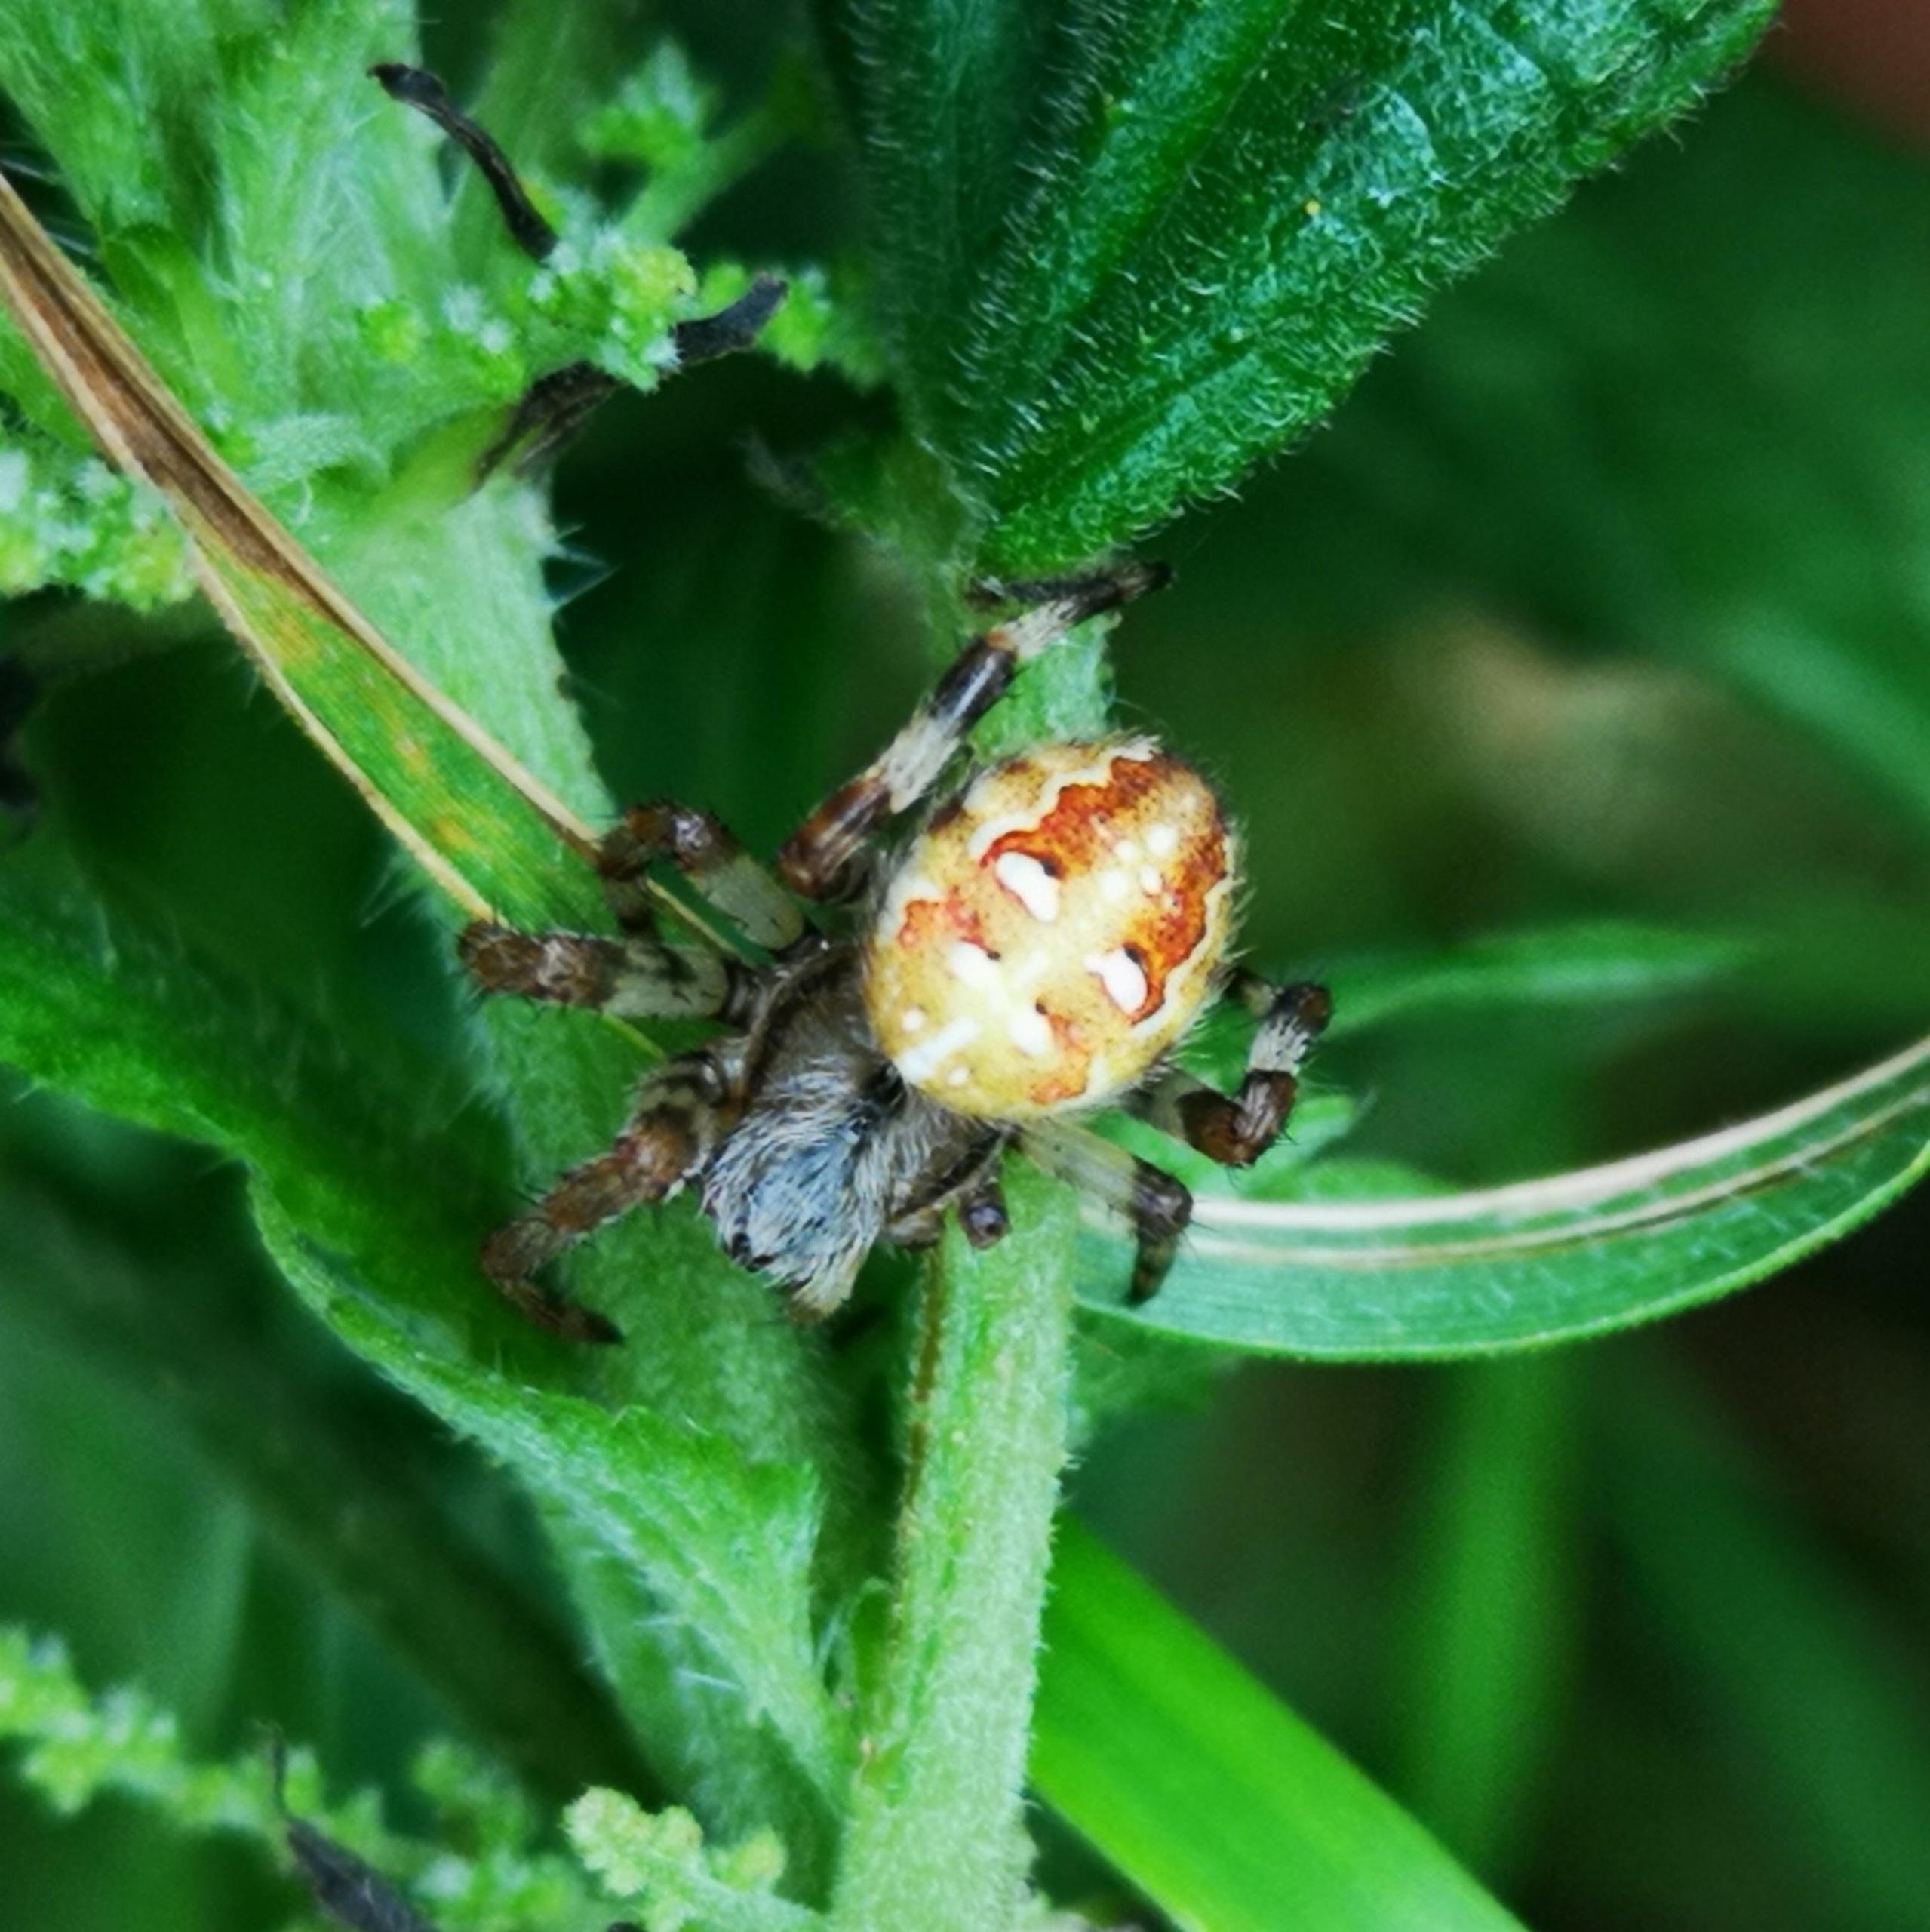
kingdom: Animalia
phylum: Arthropoda
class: Arachnida
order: Araneae
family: Araneidae
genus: Araneus
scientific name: Araneus quadratus
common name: Kvadratedderkop
